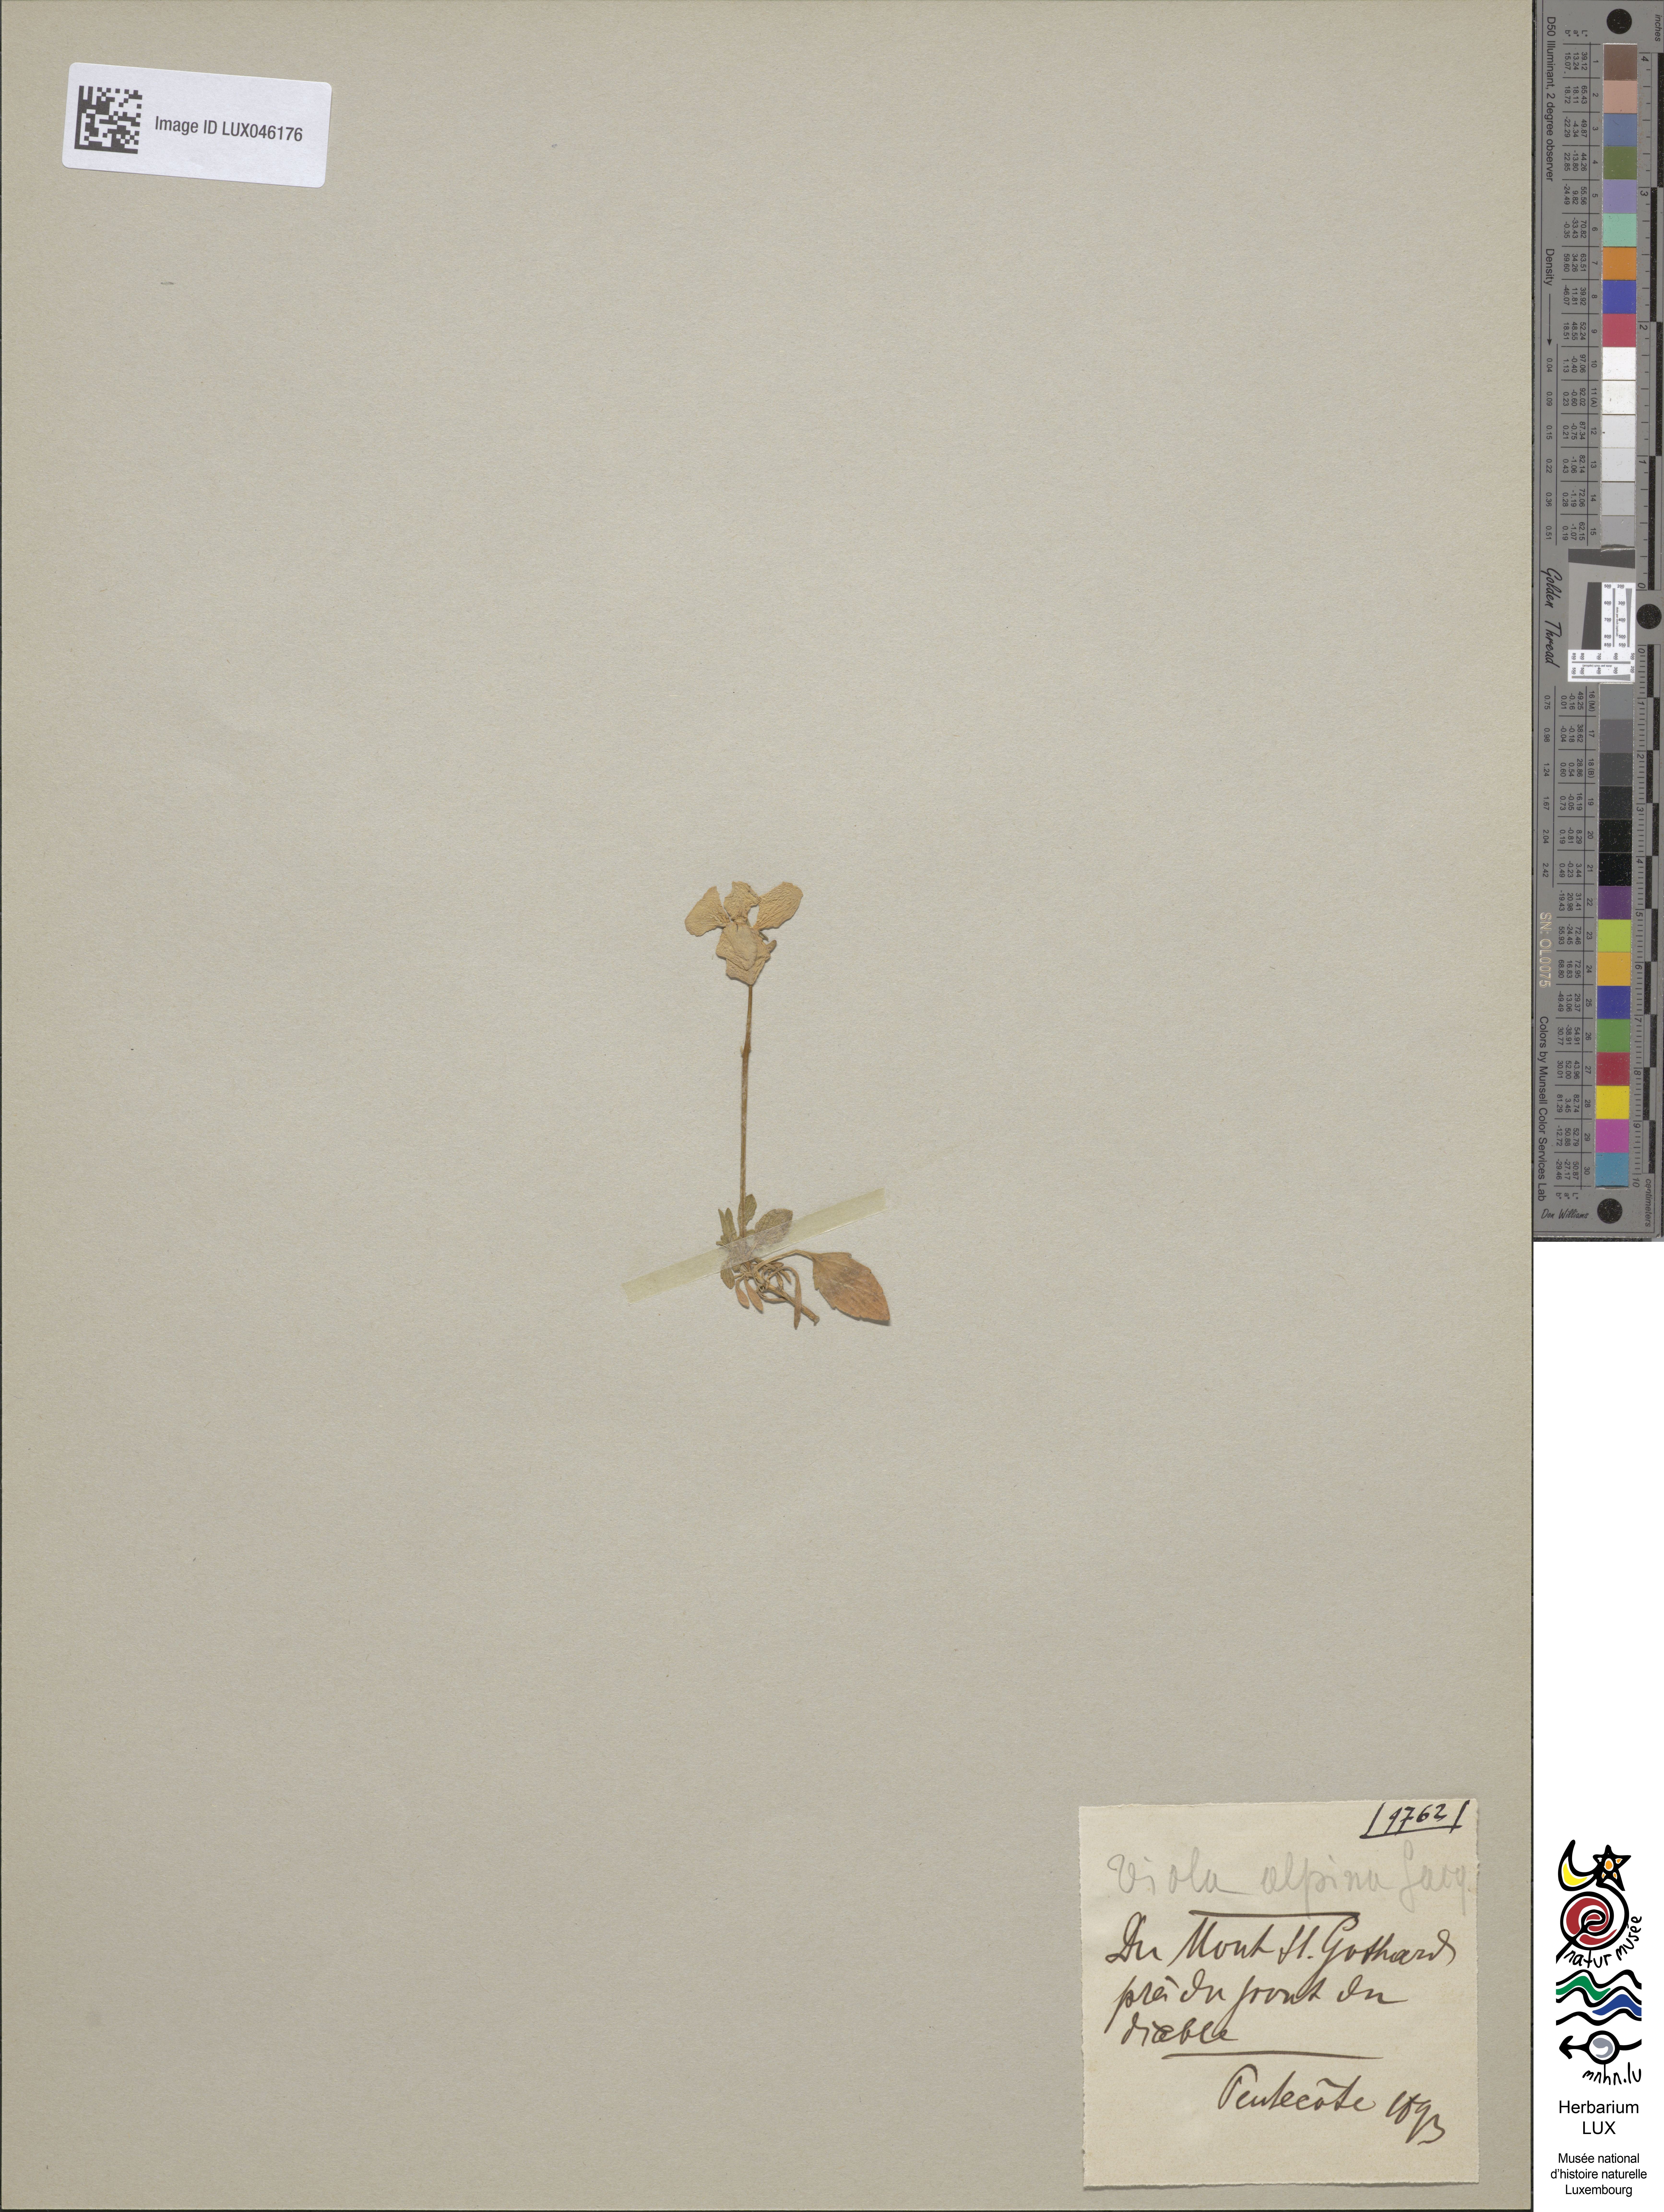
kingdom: Plantae
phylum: Tracheophyta
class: Magnoliopsida
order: Malpighiales
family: Violaceae
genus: Viola
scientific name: Viola alpina
